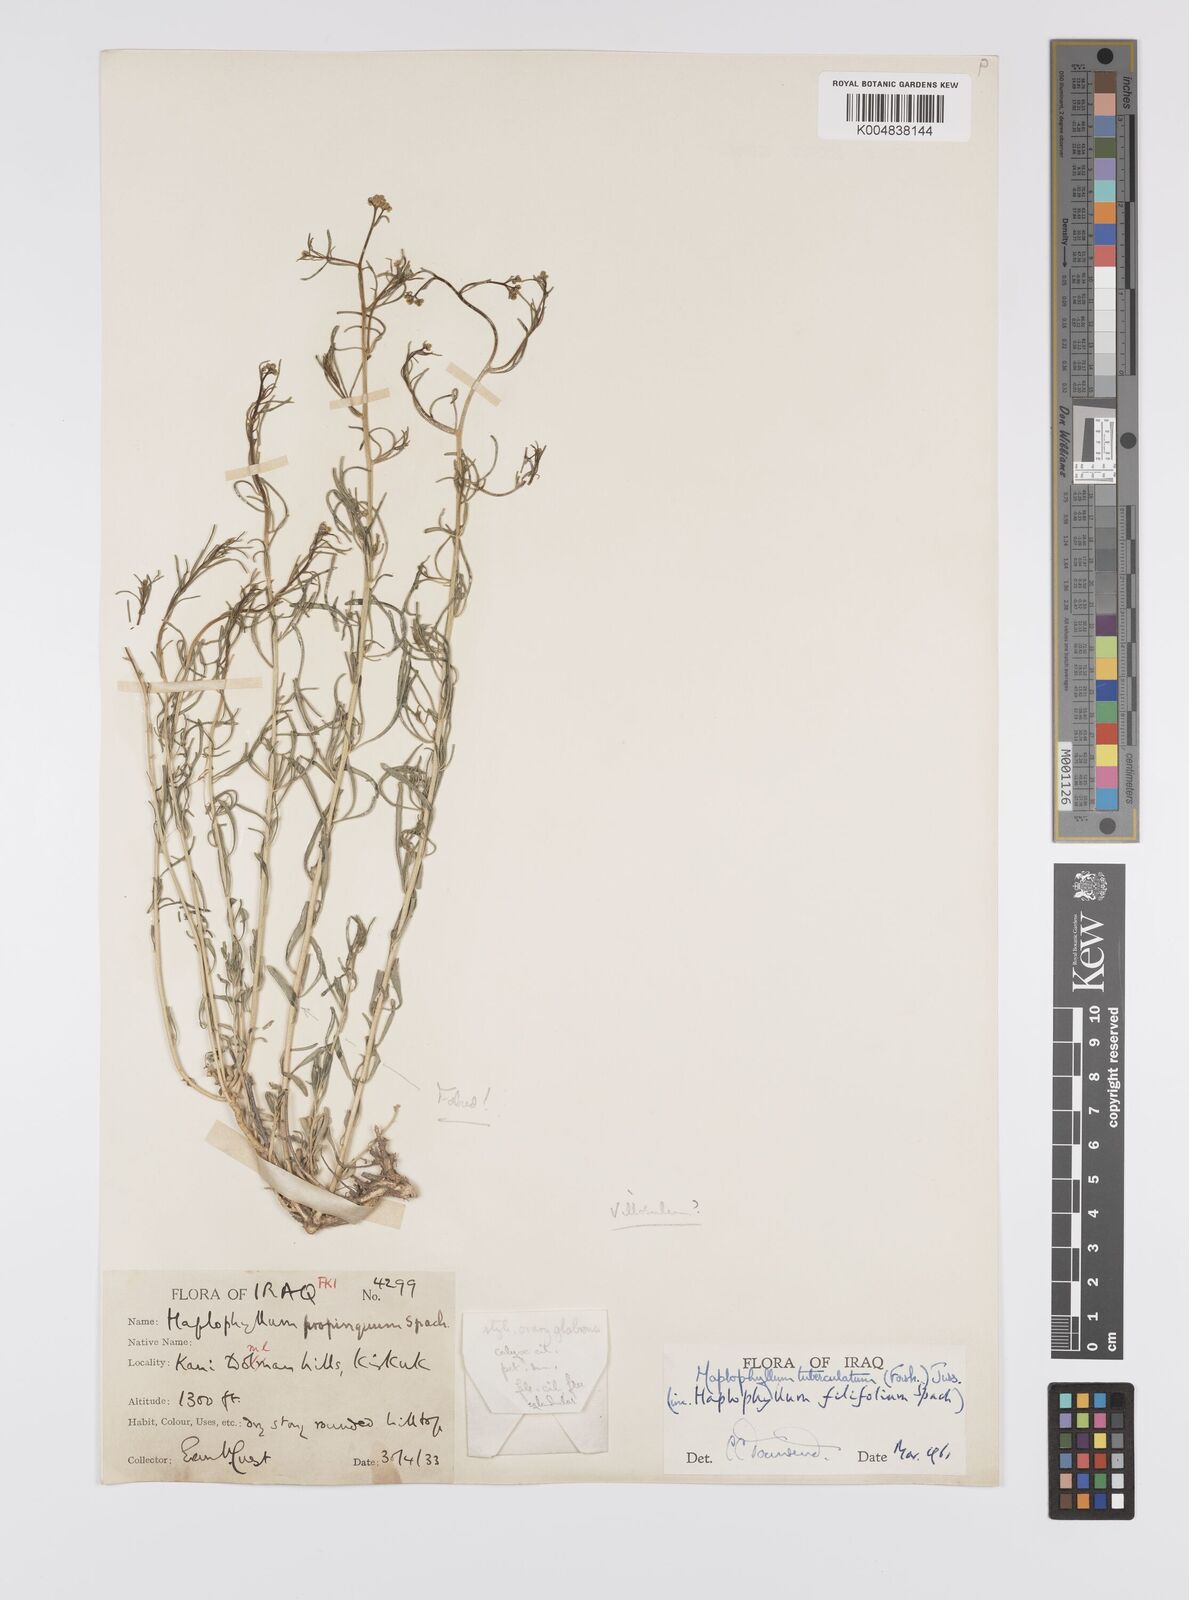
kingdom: Plantae
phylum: Tracheophyta
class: Magnoliopsida
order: Sapindales
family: Rutaceae
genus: Haplophyllum
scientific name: Haplophyllum tuberculatum
